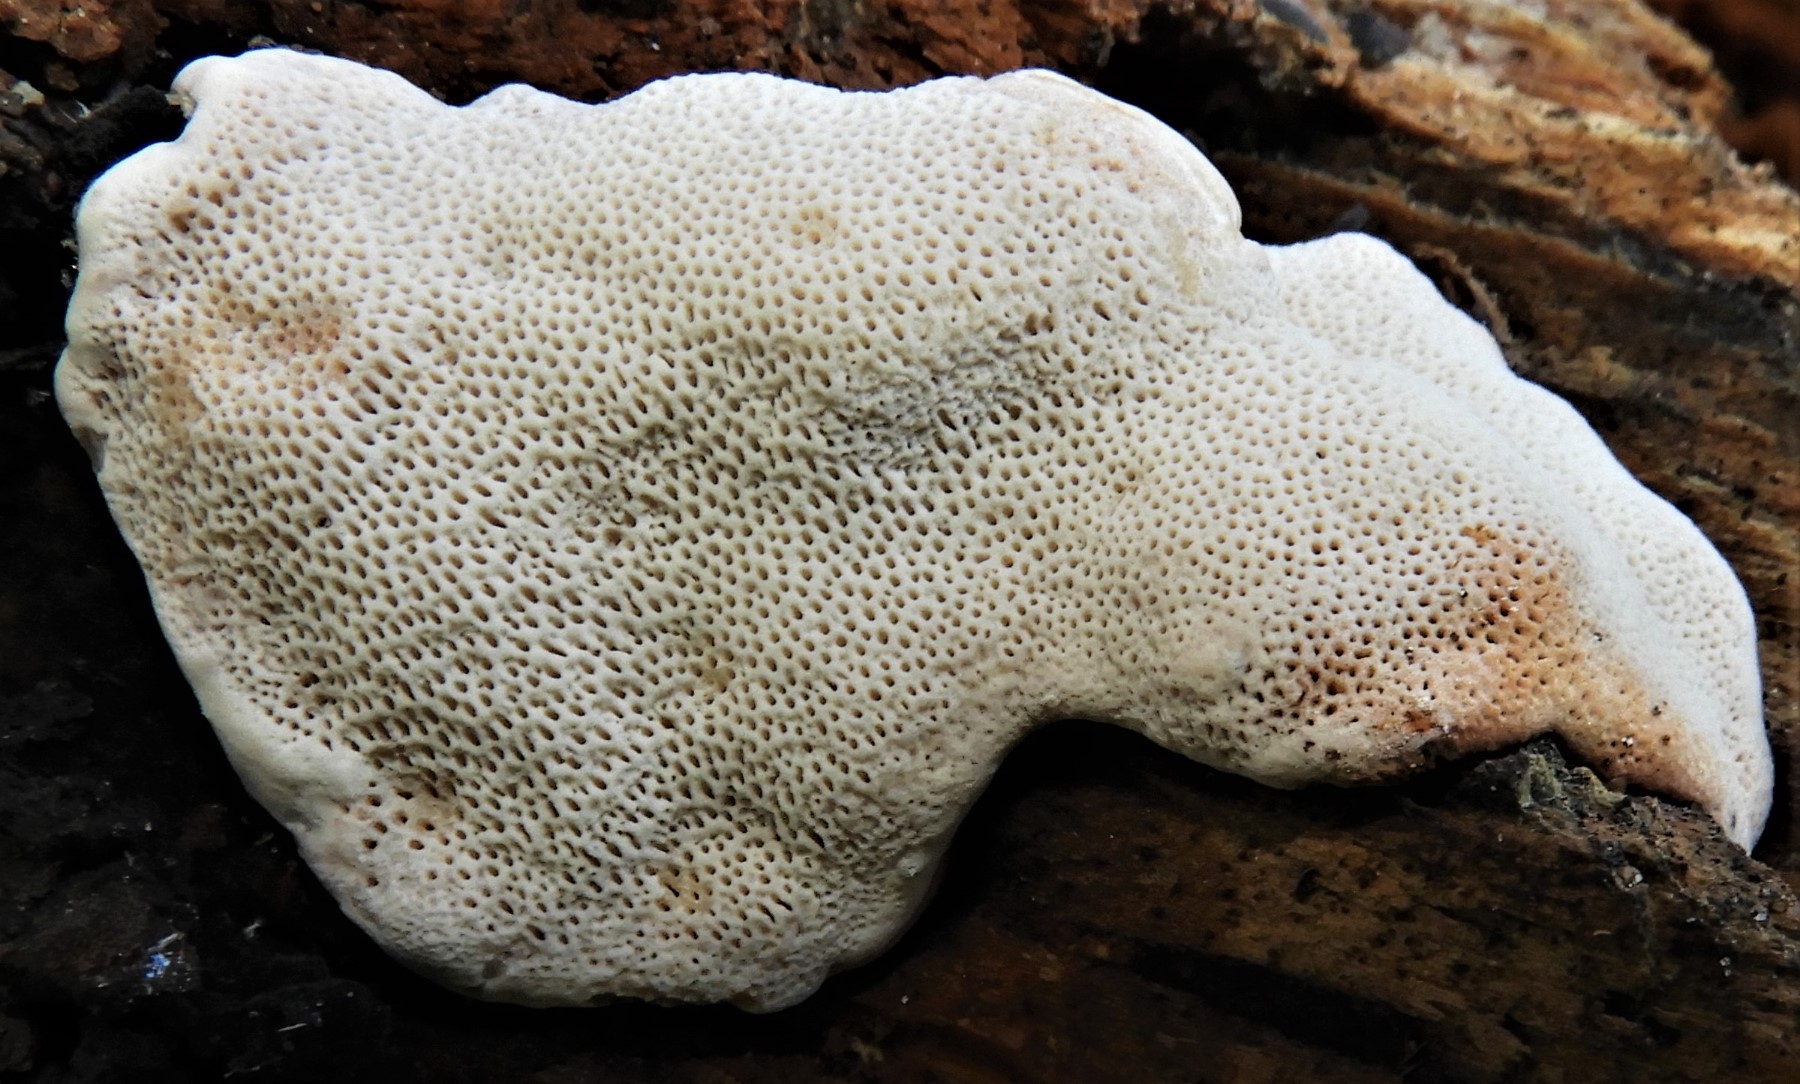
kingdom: Fungi
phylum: Basidiomycota
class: Agaricomycetes
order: Polyporales
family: Polyporaceae
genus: Podofomes
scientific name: Podofomes mollis
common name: blød begporesvamp
